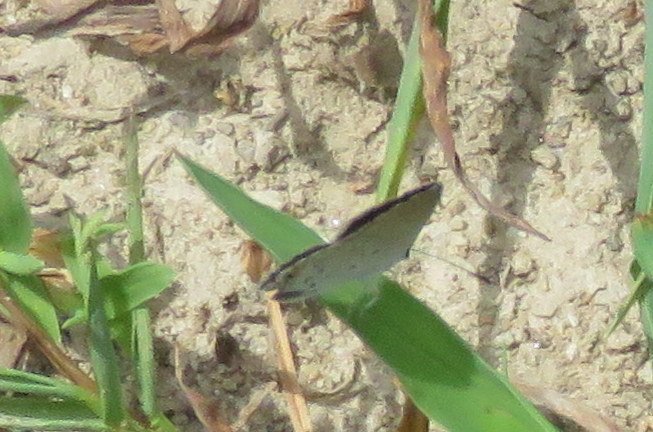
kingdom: Animalia
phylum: Arthropoda
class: Insecta
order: Lepidoptera
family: Lycaenidae
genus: Elkalyce
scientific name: Elkalyce comyntas
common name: Eastern Tailed-Blue
